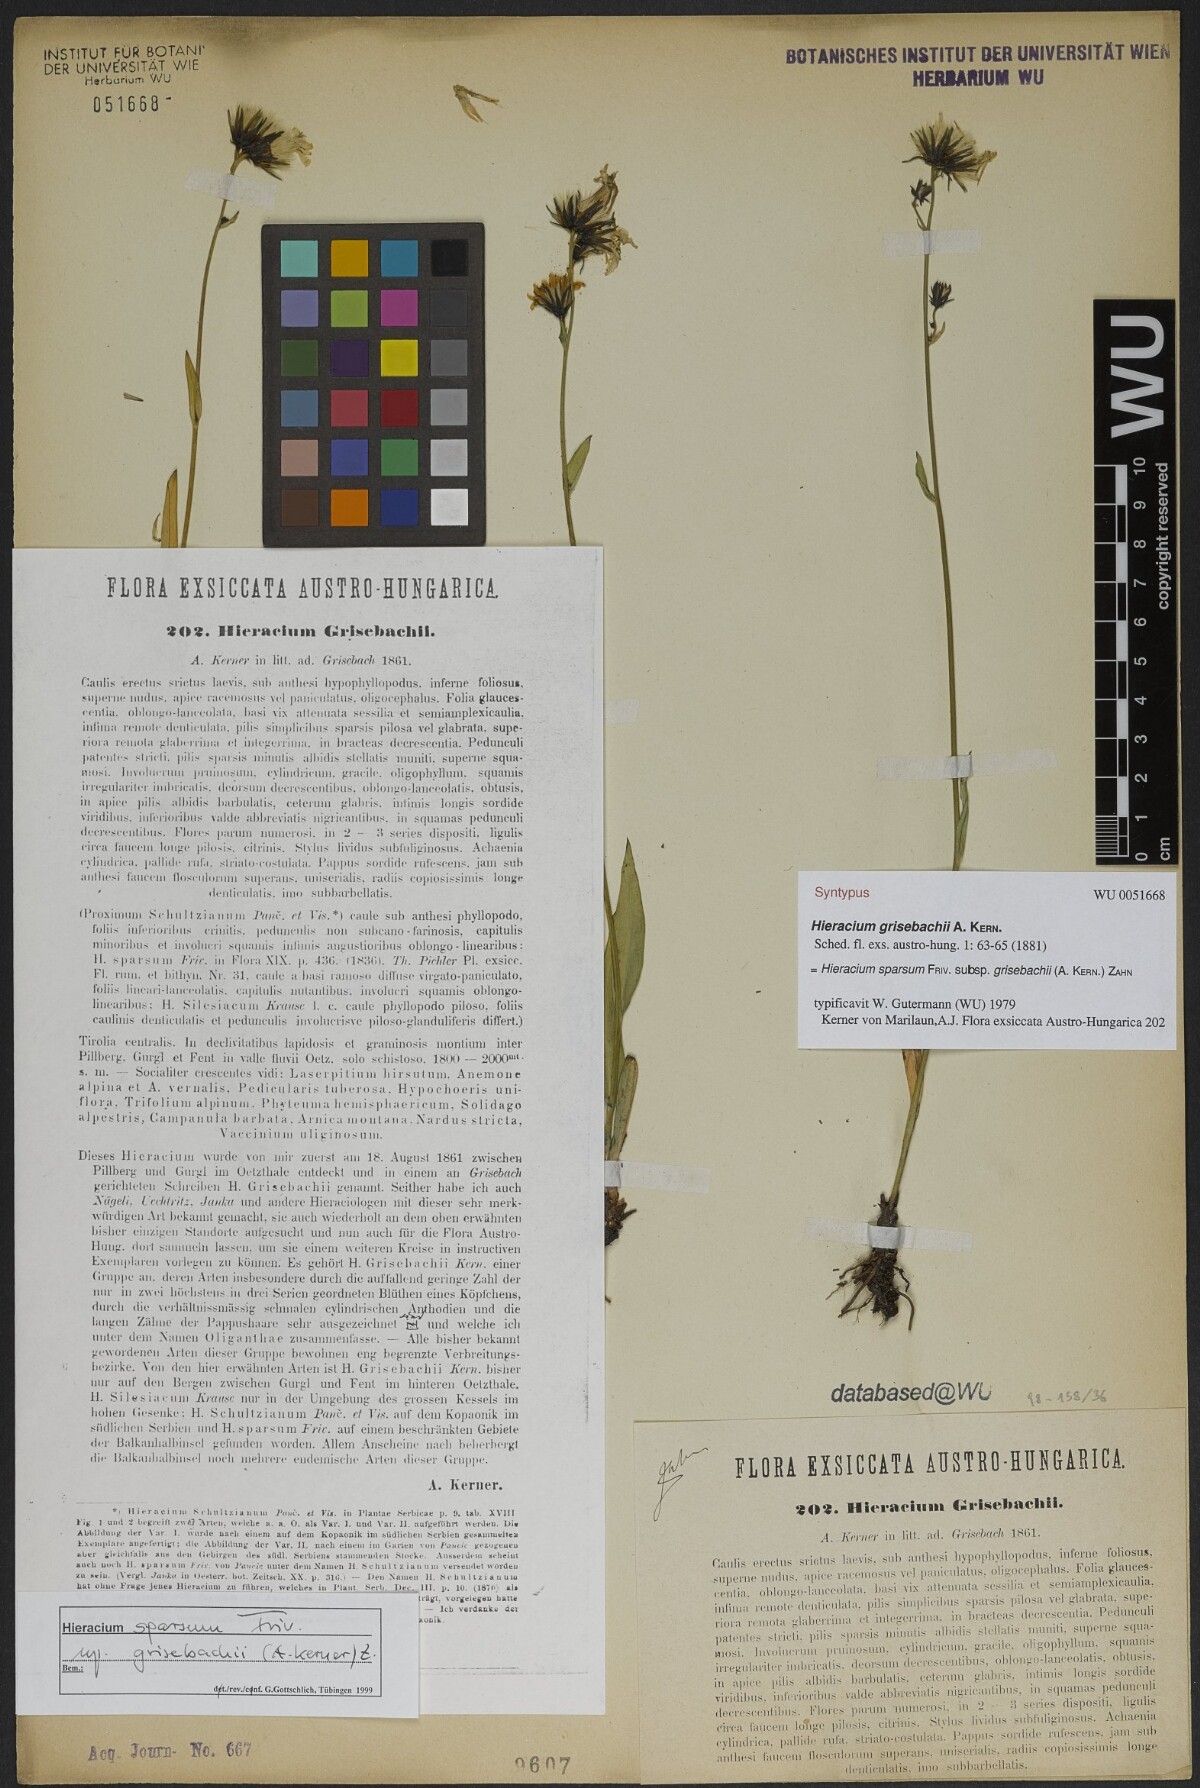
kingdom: Plantae
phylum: Tracheophyta
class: Magnoliopsida
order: Asterales
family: Asteraceae
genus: Hieracium
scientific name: Hieracium sparsum
